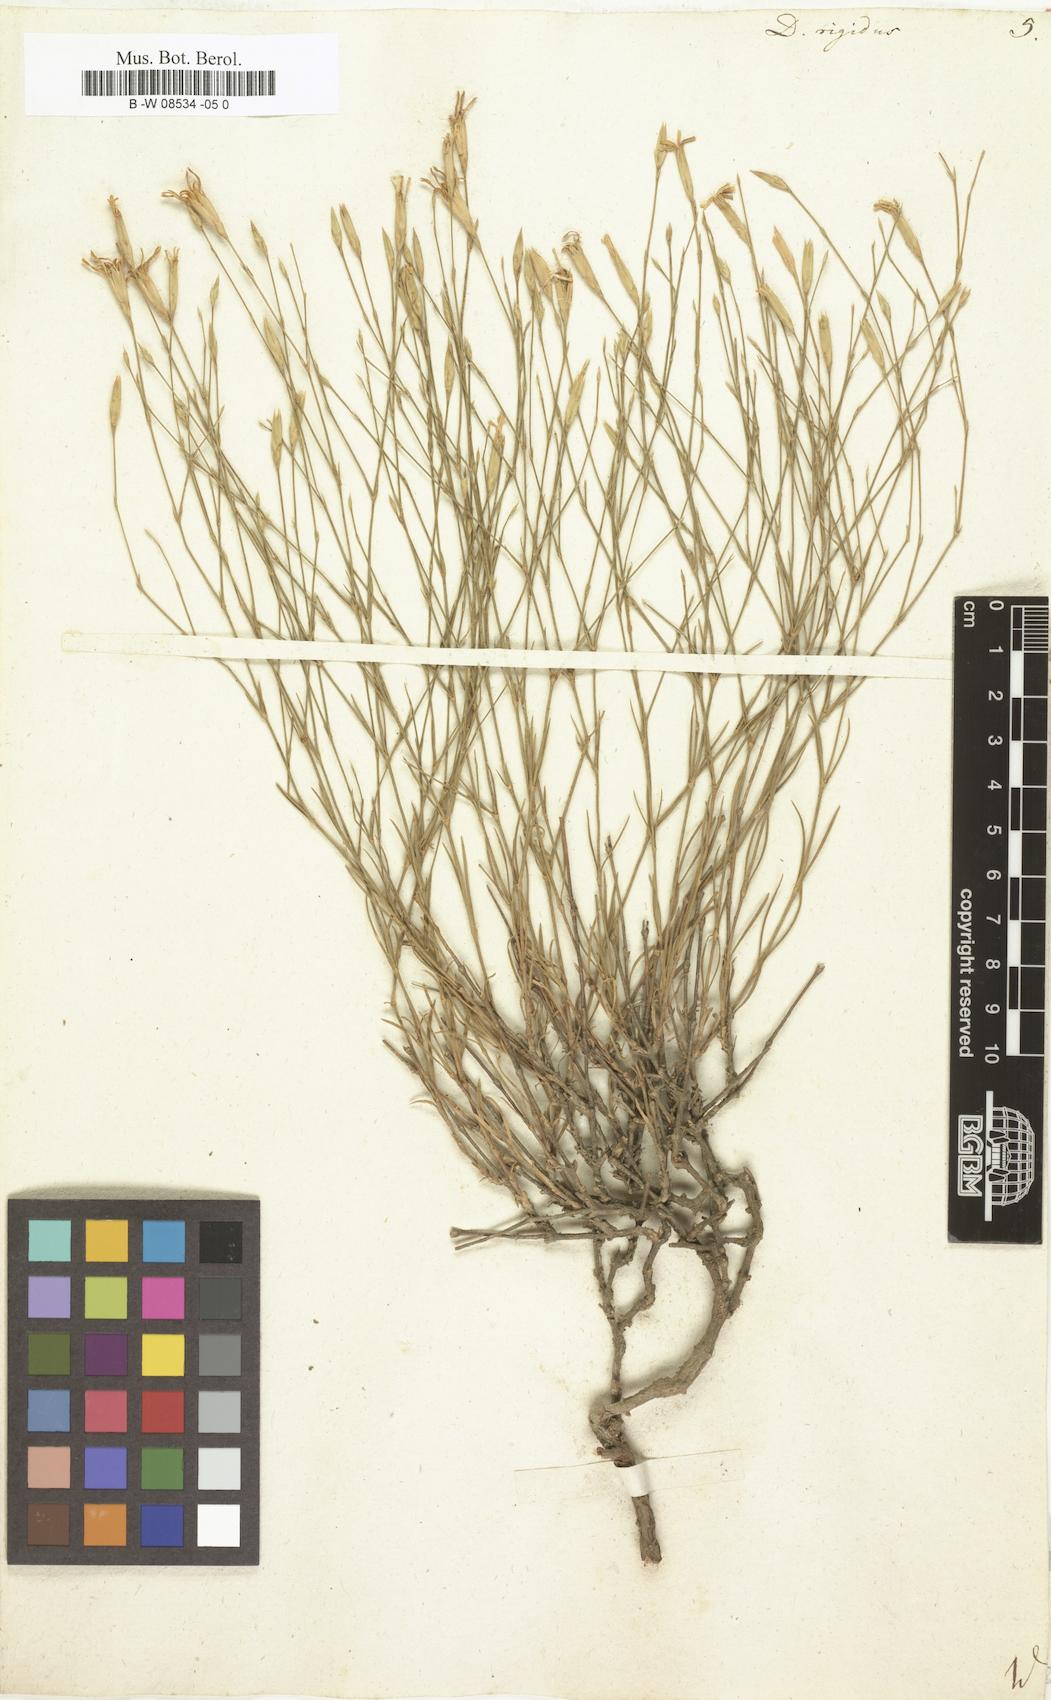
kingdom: Plantae
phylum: Tracheophyta
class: Magnoliopsida
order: Caryophyllales
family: Caryophyllaceae
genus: Dianthus
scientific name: Dianthus rigidus
